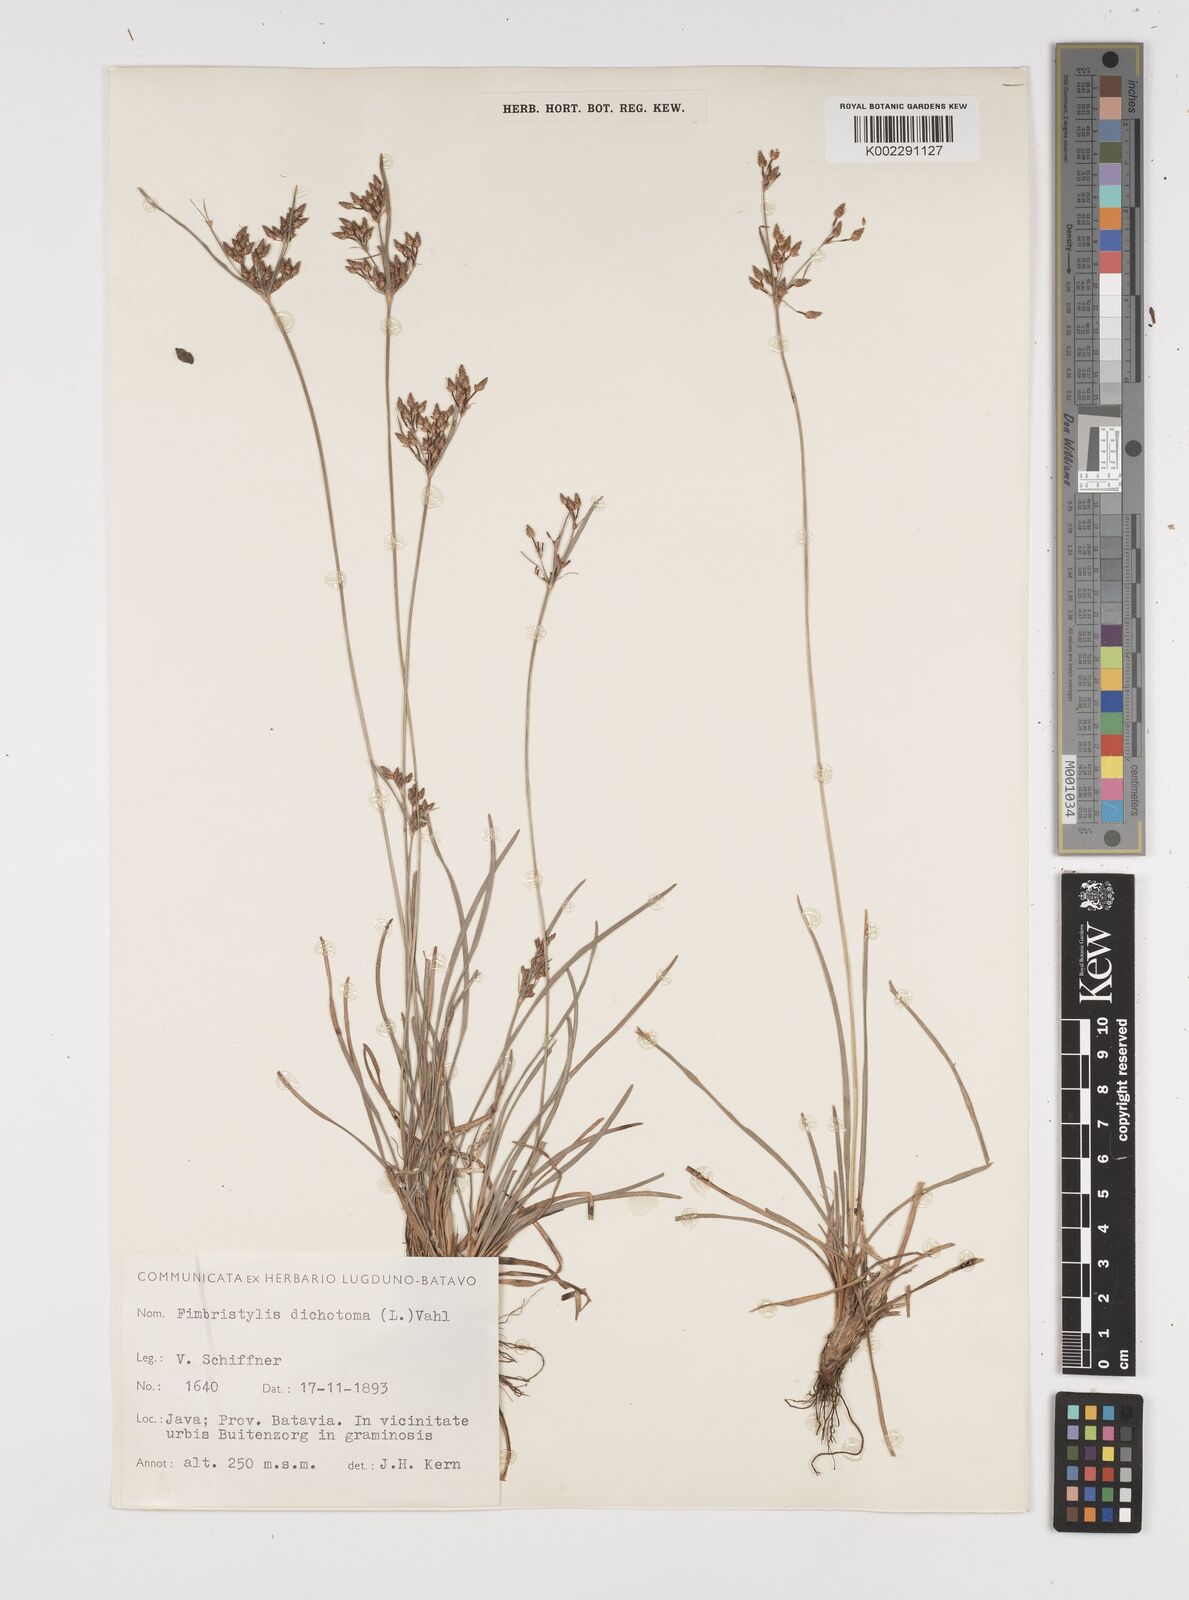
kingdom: Plantae
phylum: Tracheophyta
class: Liliopsida
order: Poales
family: Cyperaceae
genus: Fimbristylis
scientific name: Fimbristylis dichotoma
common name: Forked fimbry
